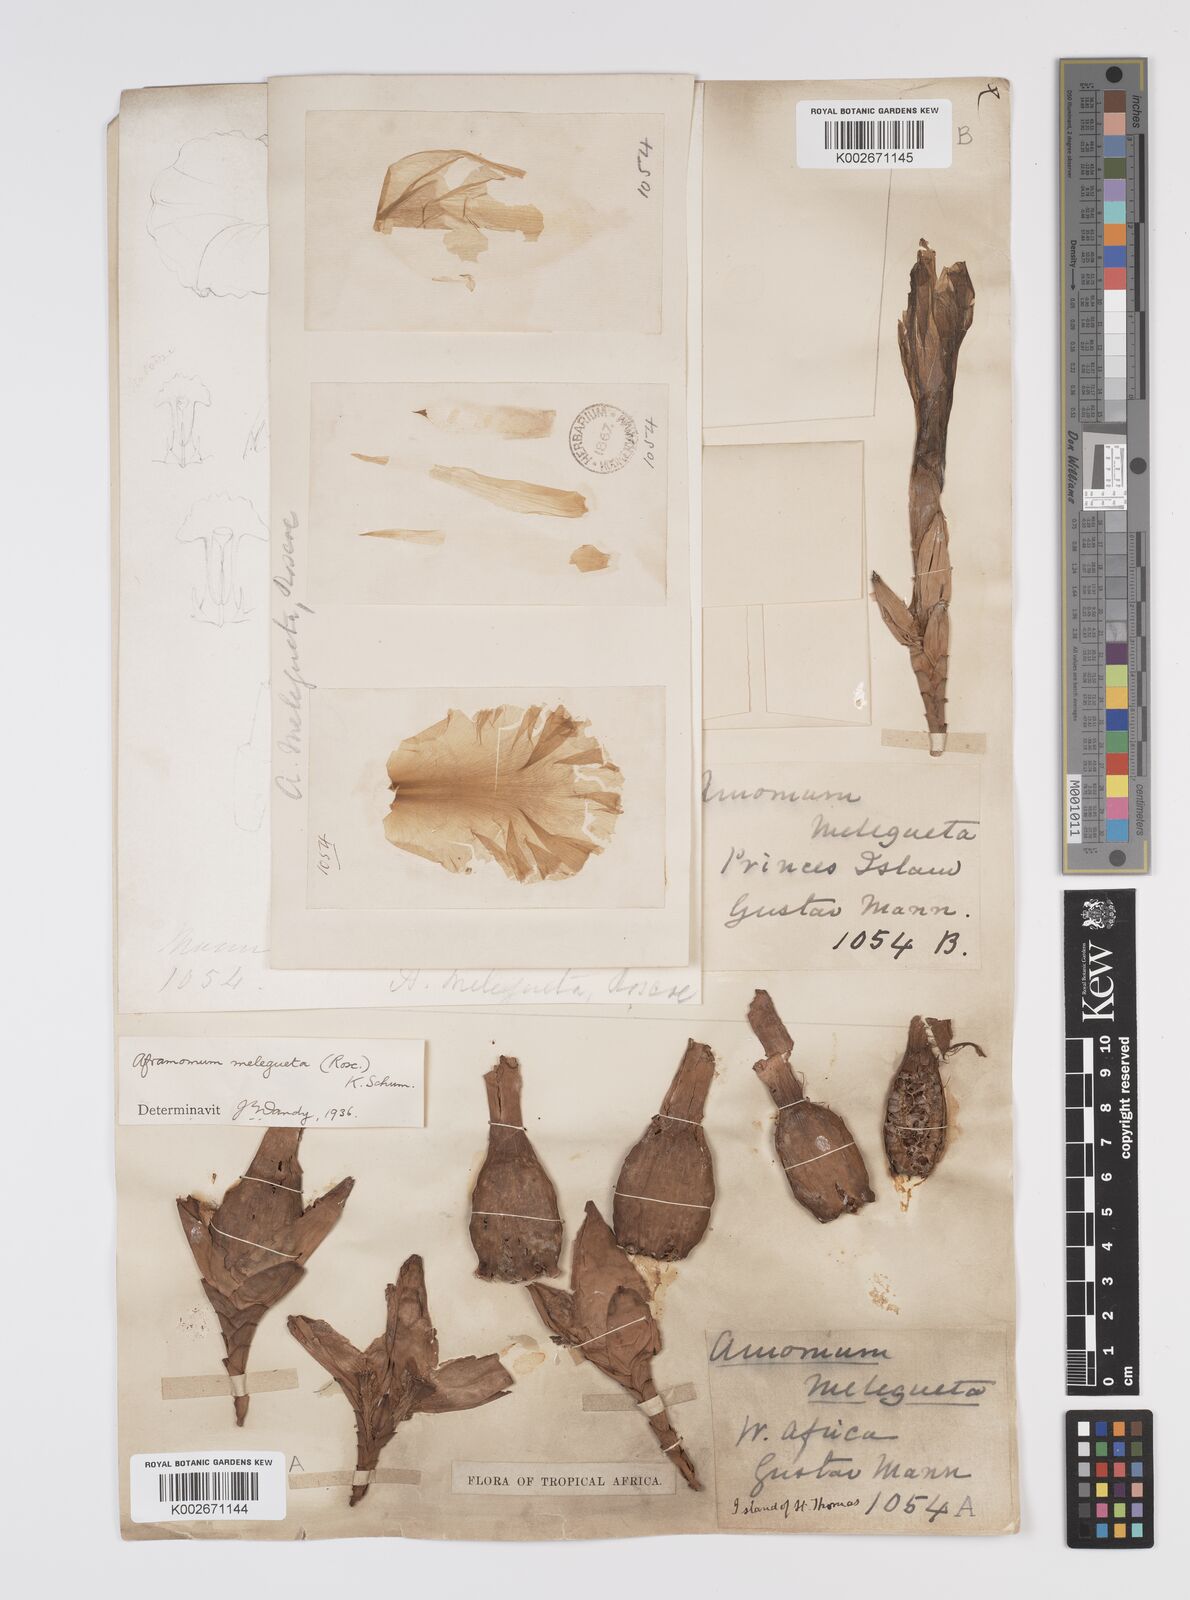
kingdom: Plantae
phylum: Tracheophyta
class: Liliopsida
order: Zingiberales
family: Zingiberaceae
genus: Aframomum
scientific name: Aframomum melegueta
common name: Grains of paradise
